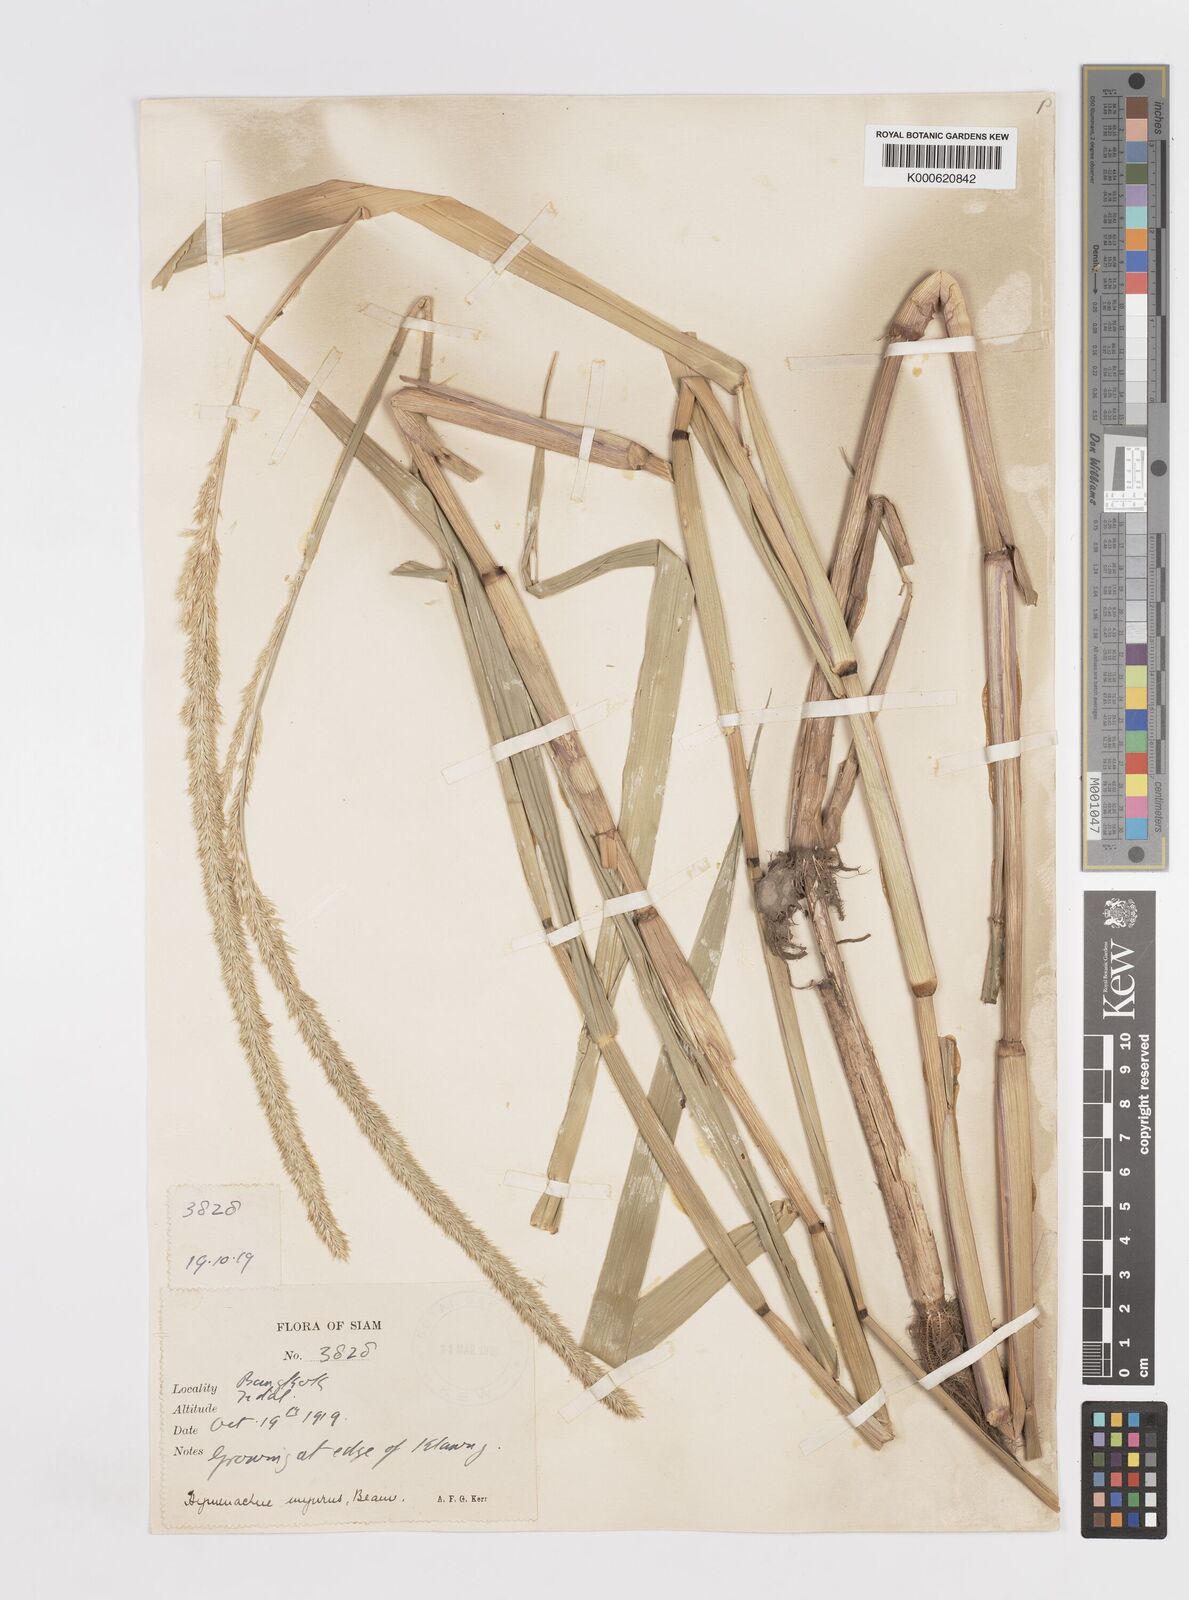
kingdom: Plantae
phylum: Tracheophyta
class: Liliopsida
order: Poales
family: Poaceae
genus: Hymenachne
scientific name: Hymenachne amplexicaulis
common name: Olive hymenachne
